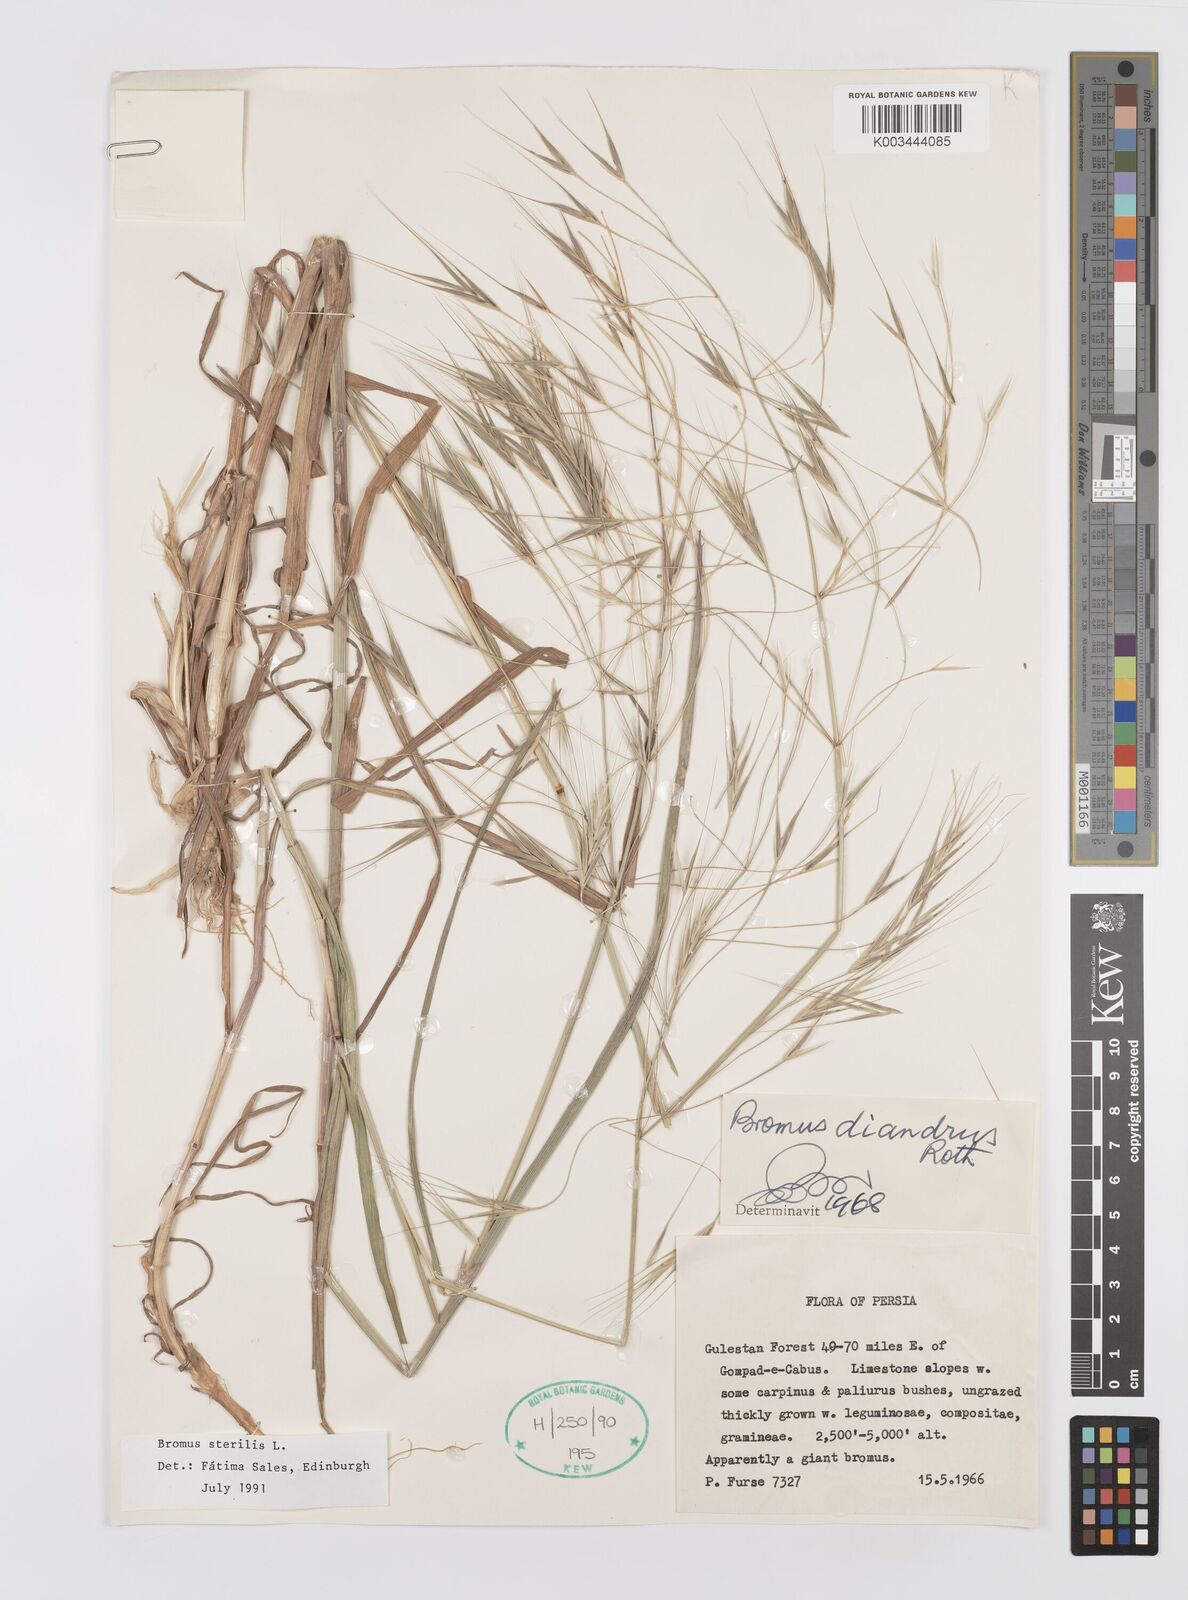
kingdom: Plantae
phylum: Tracheophyta
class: Liliopsida
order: Poales
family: Poaceae
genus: Bromus
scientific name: Bromus sterilis
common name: Poverty brome
